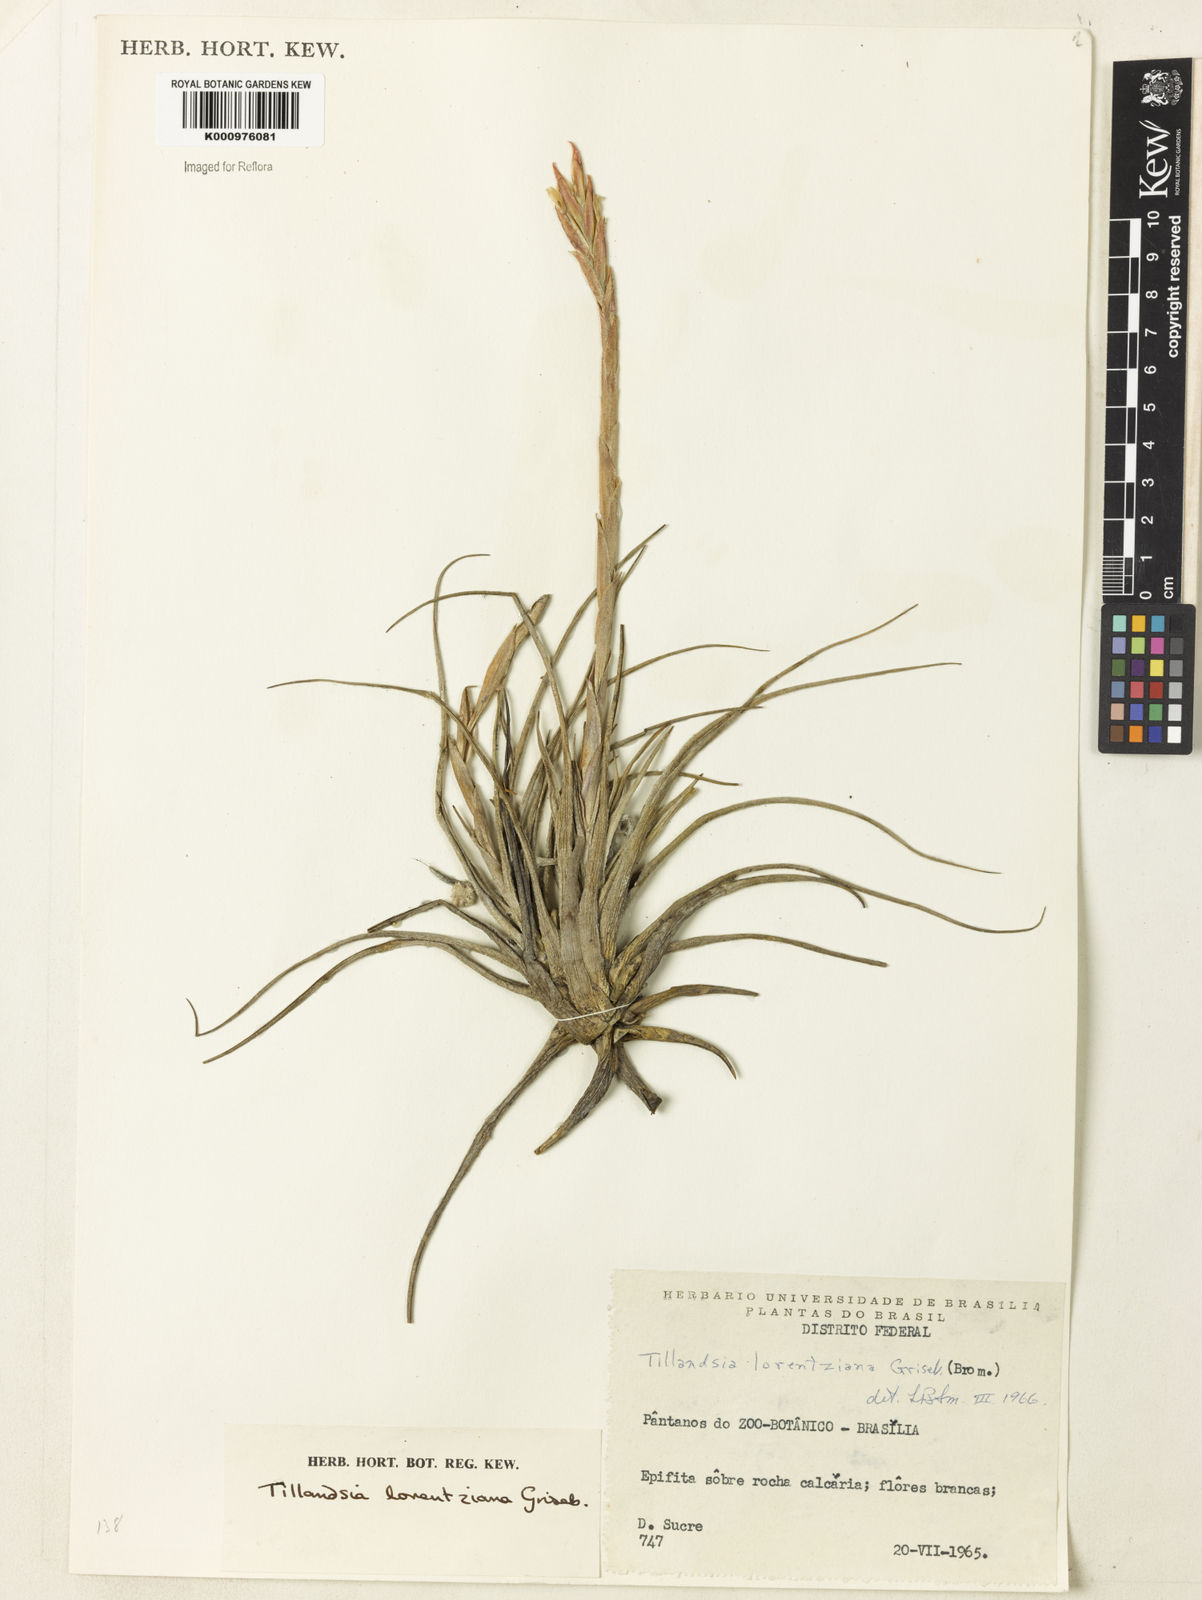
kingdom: Plantae
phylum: Tracheophyta
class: Liliopsida
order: Poales
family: Bromeliaceae
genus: Tillandsia
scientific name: Tillandsia lorentziana
